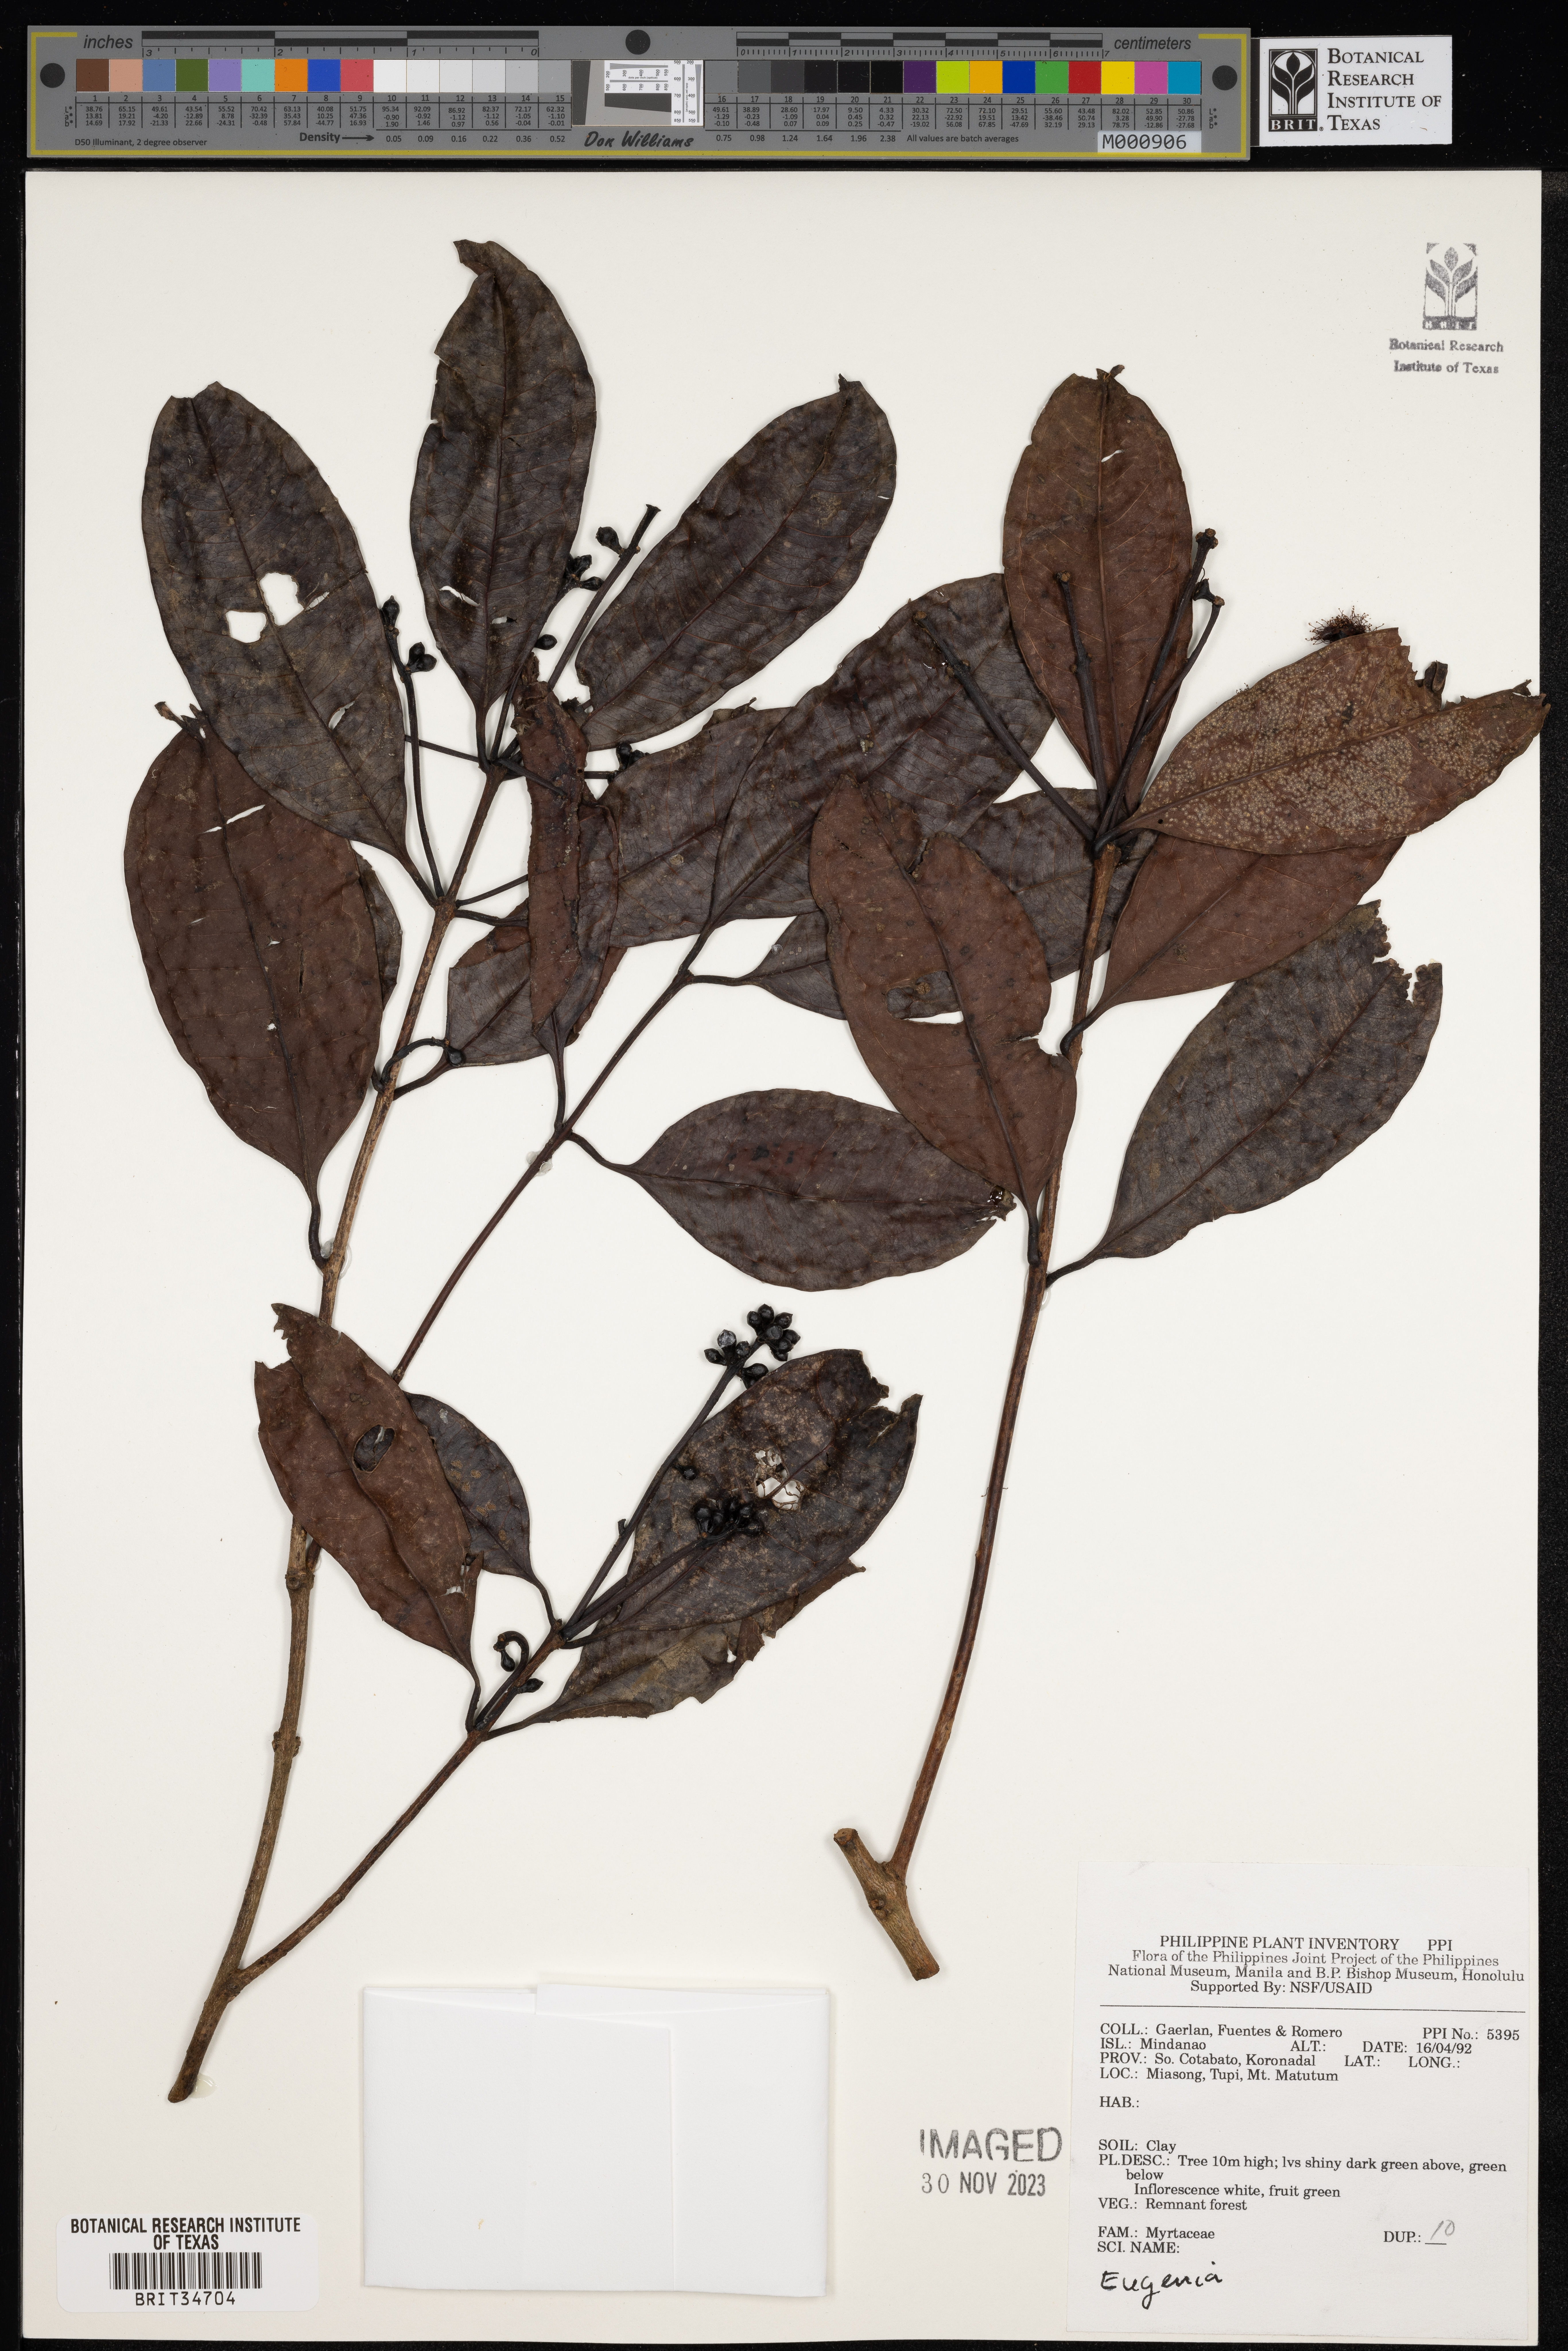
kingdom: Plantae
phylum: Tracheophyta
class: Magnoliopsida
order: Myrtales
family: Myrtaceae
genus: Eugenia
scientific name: Eugenia
